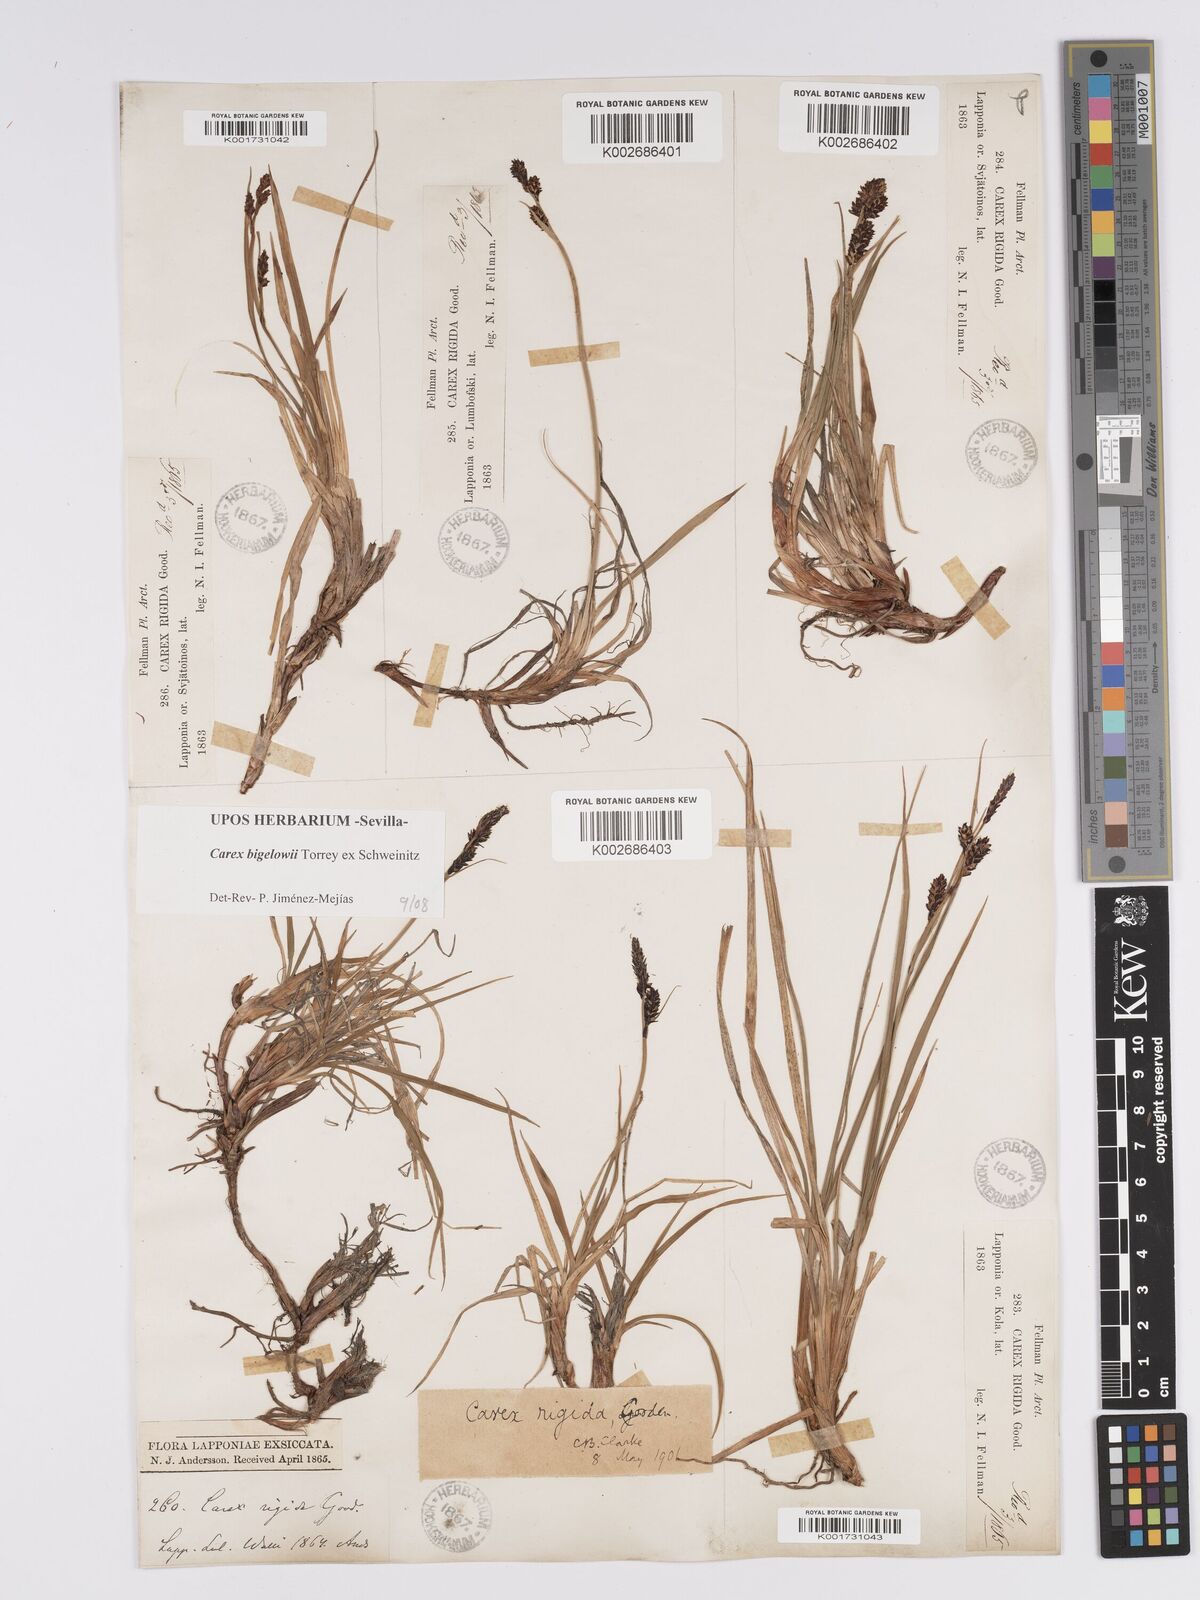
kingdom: Plantae
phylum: Tracheophyta
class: Liliopsida
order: Poales
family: Cyperaceae
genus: Carex
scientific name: Carex bigelowii
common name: Stiff sedge
